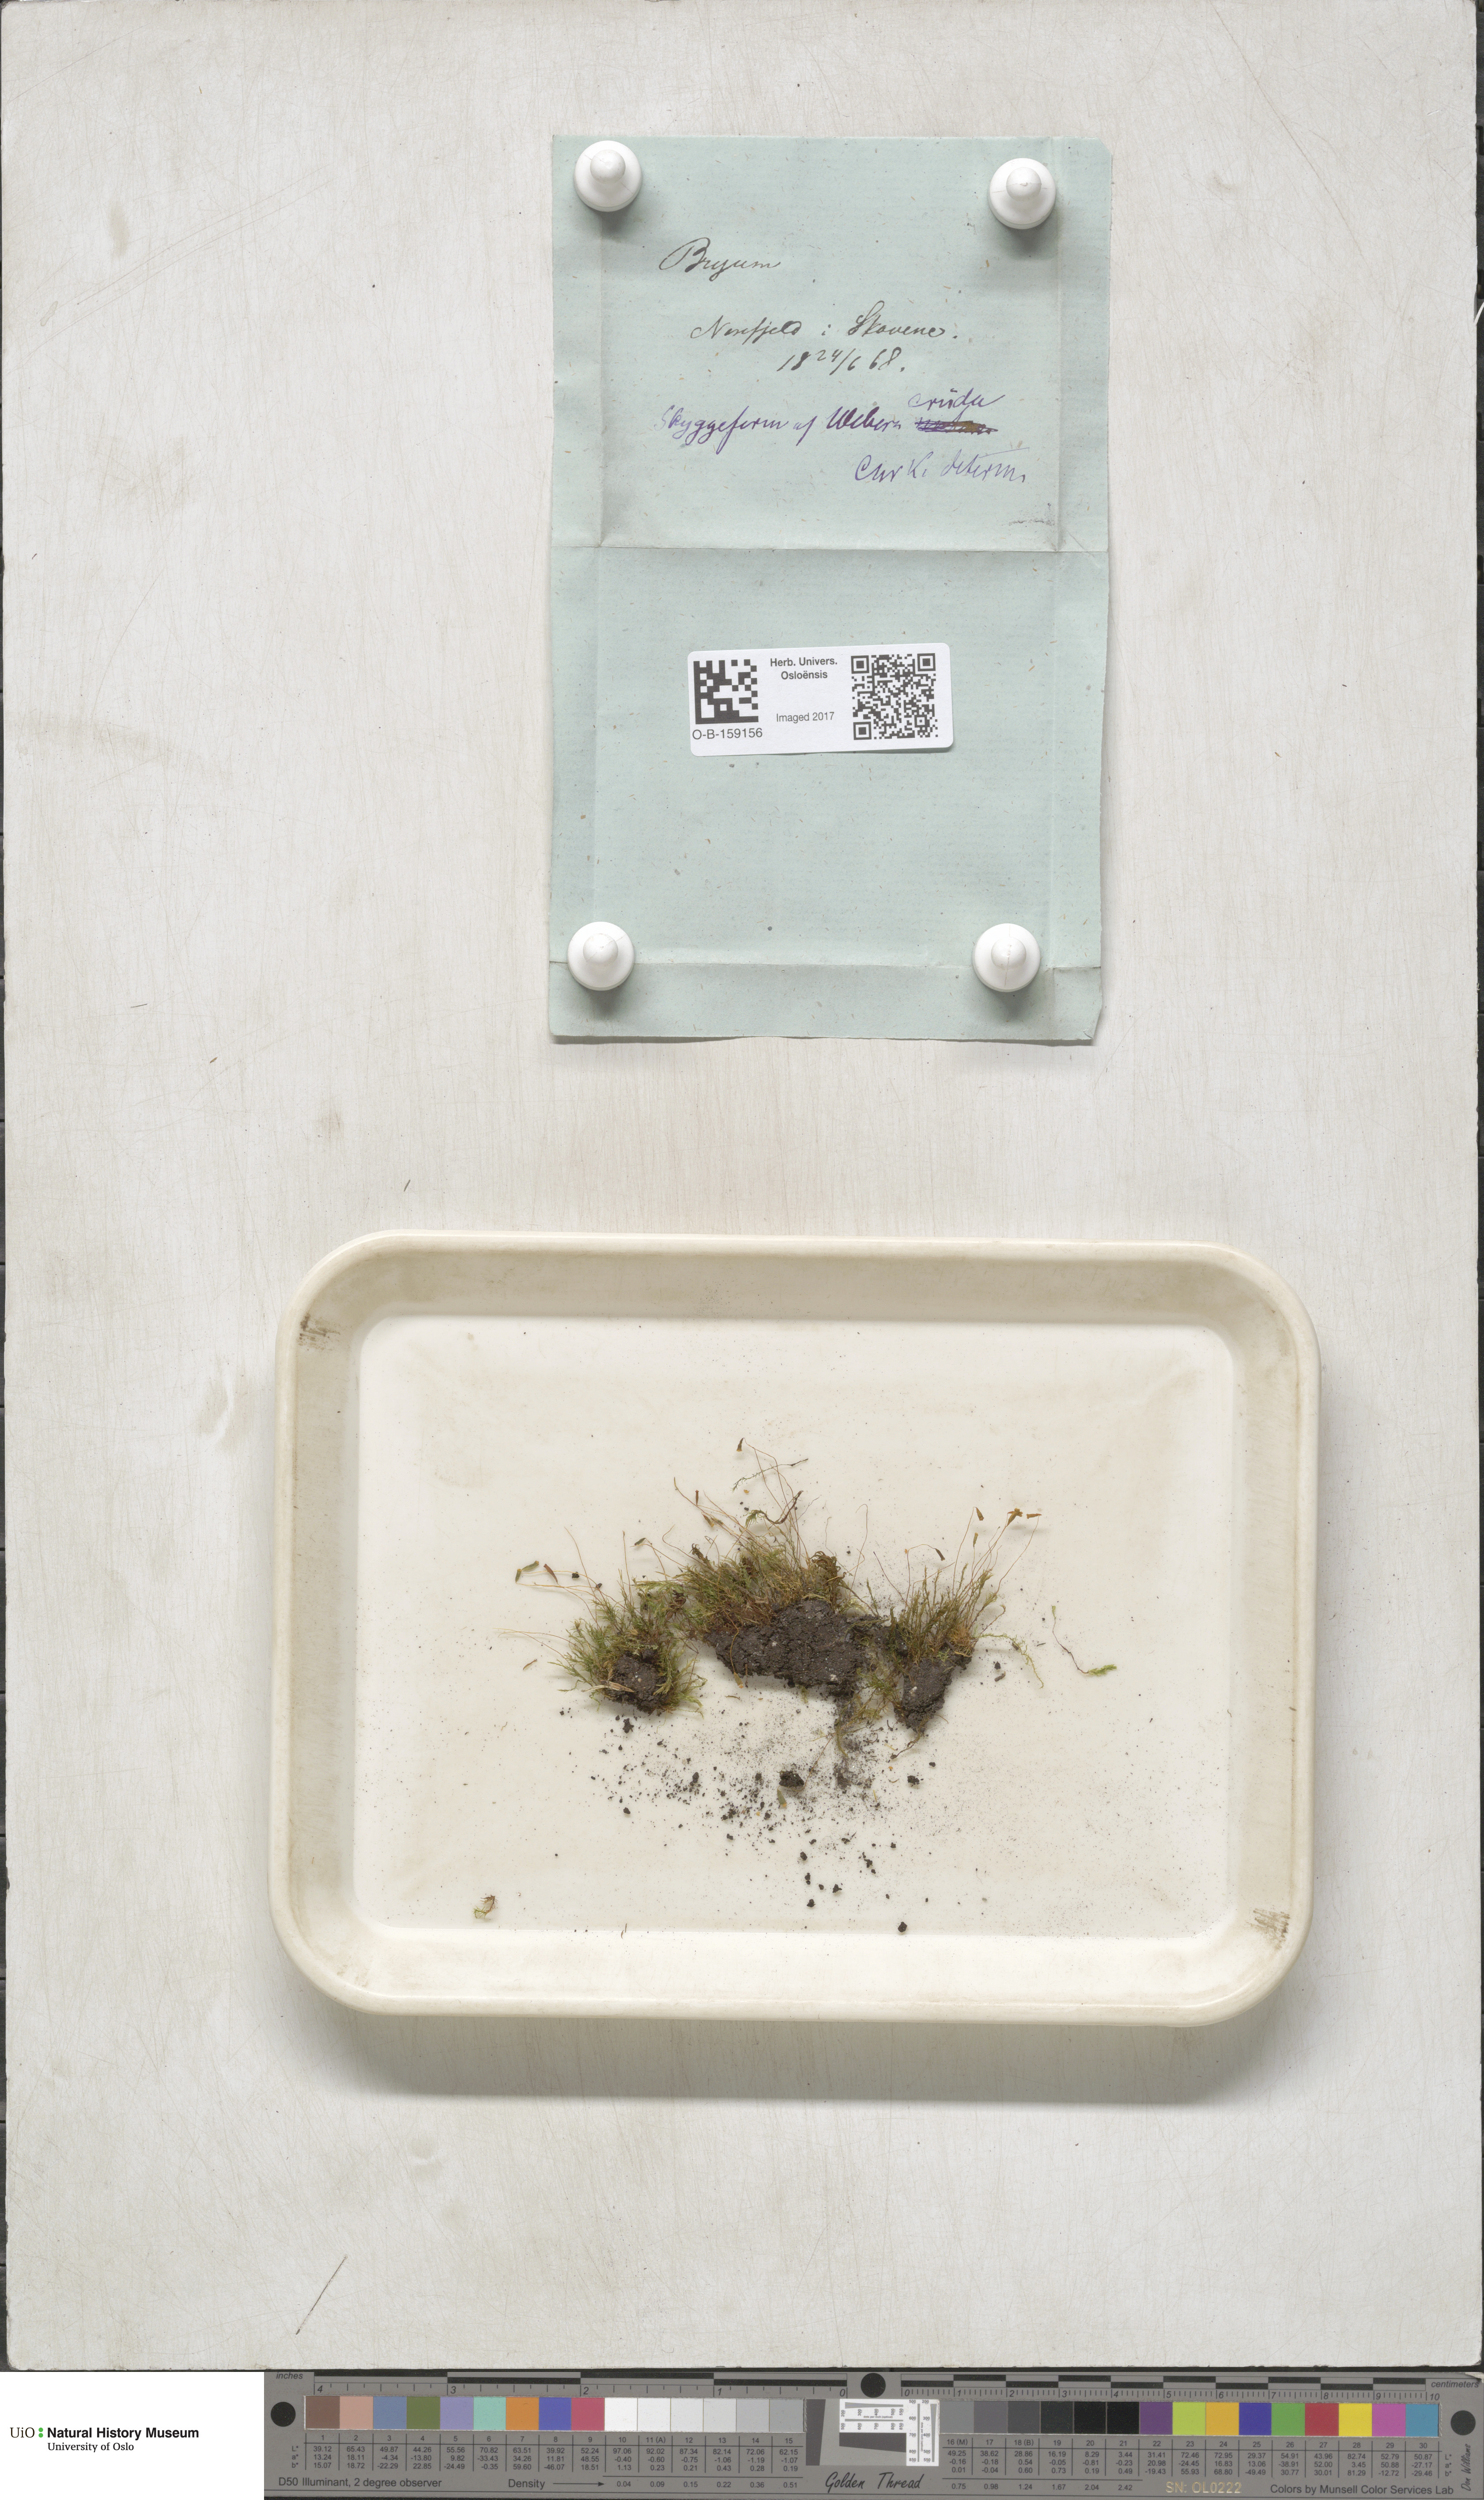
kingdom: Plantae
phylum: Bryophyta
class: Bryopsida
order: Bryales
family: Mniaceae
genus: Pohlia
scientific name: Pohlia cruda
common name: Opal nodding moss
